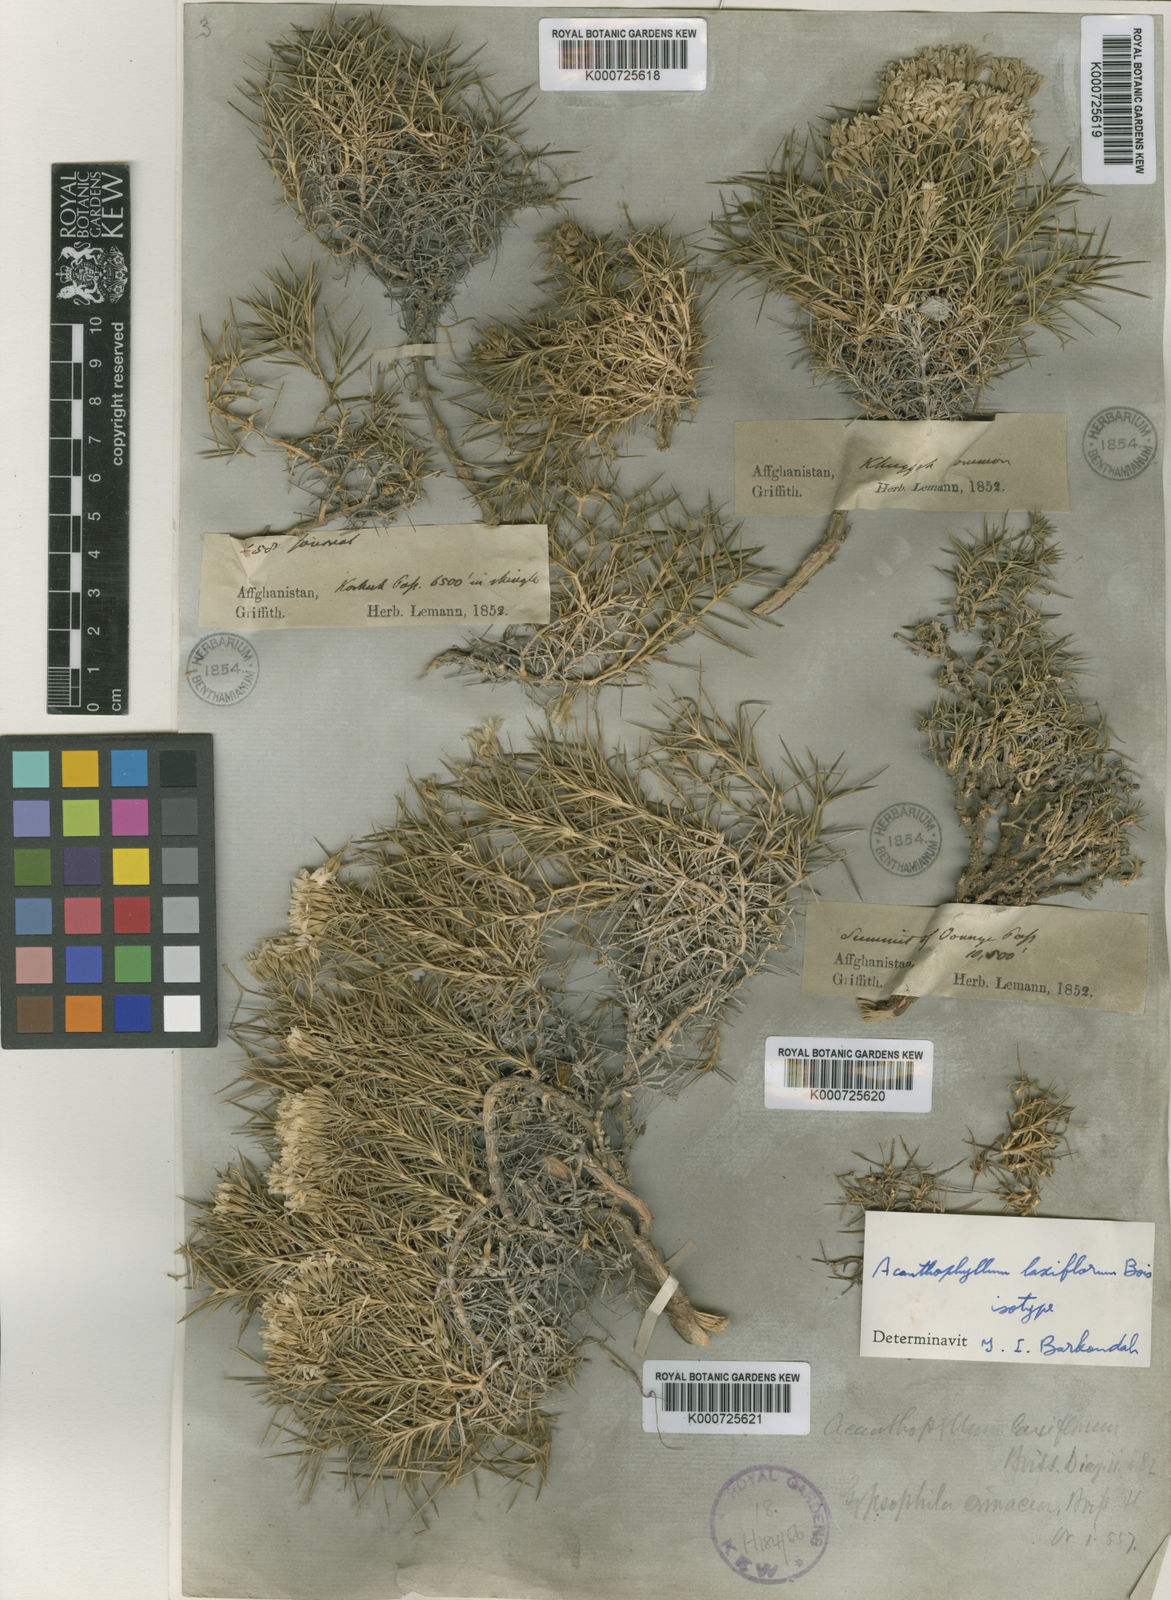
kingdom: Plantae
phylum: Tracheophyta
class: Magnoliopsida
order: Caryophyllales
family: Caryophyllaceae
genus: Acanthophyllum
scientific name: Acanthophyllum laxiflorum
